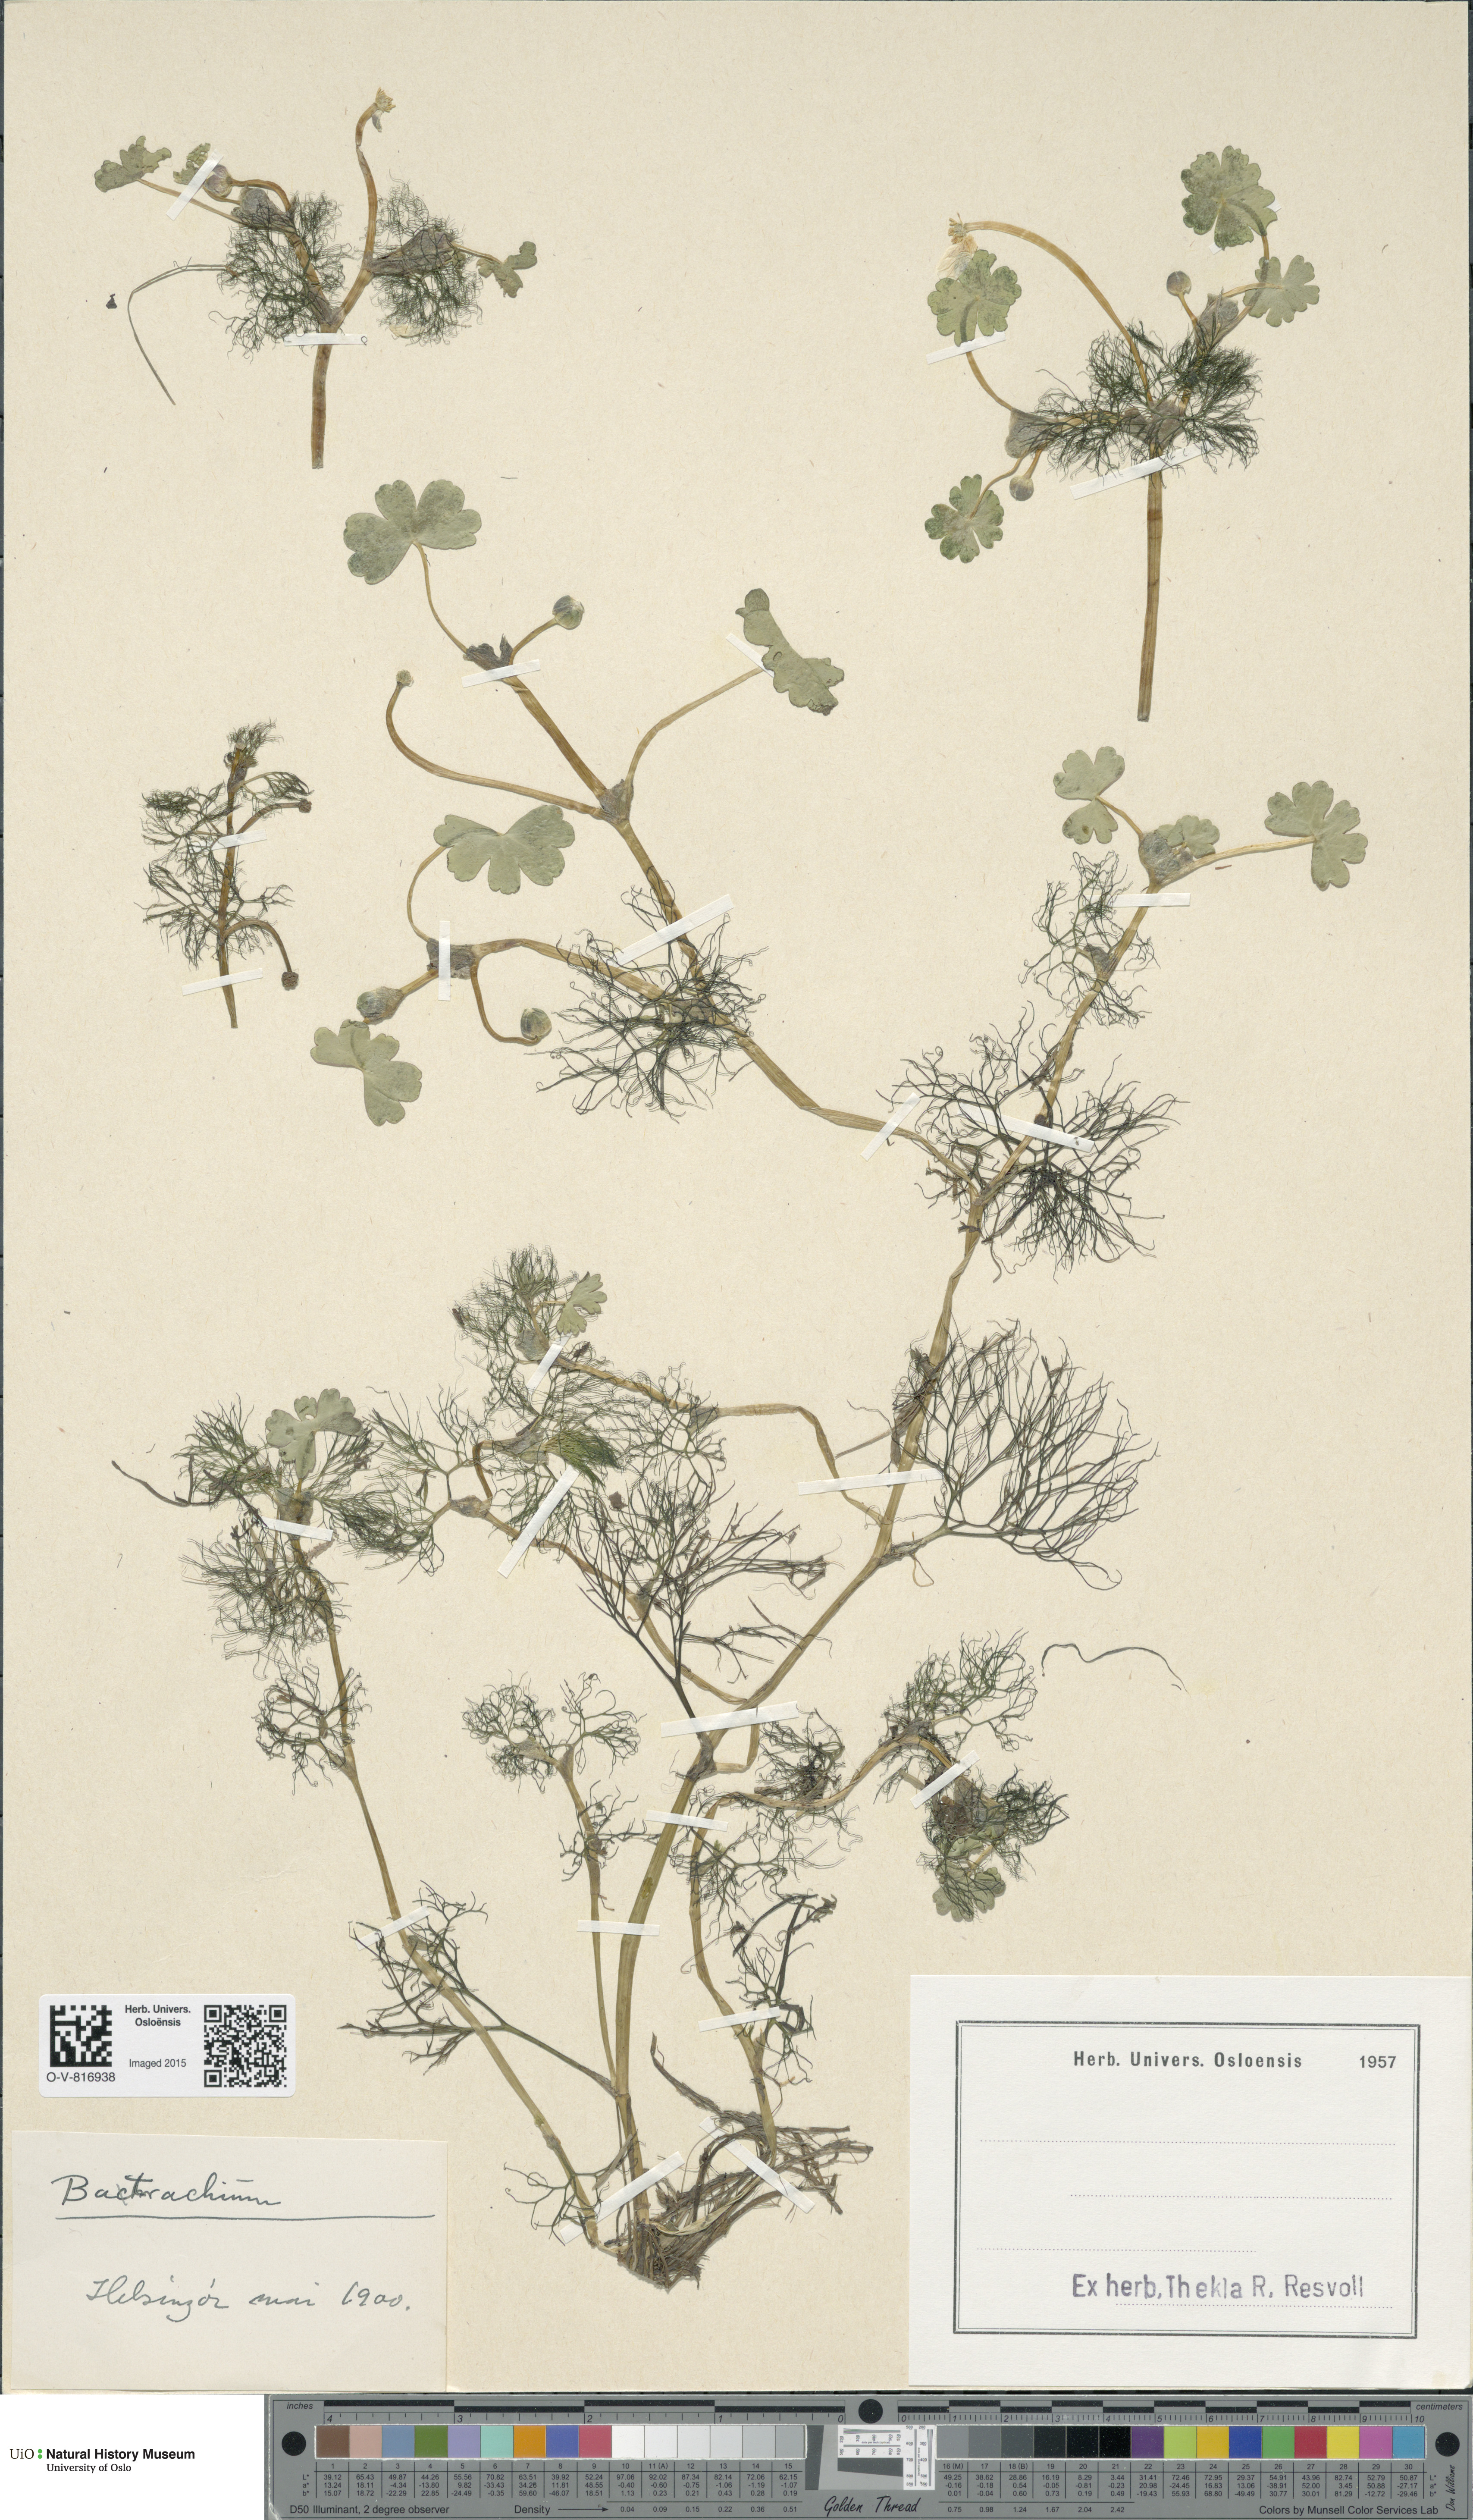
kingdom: Plantae
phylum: Tracheophyta
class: Magnoliopsida
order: Ranunculales
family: Ranunculaceae
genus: Ranunculus
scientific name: Ranunculus
